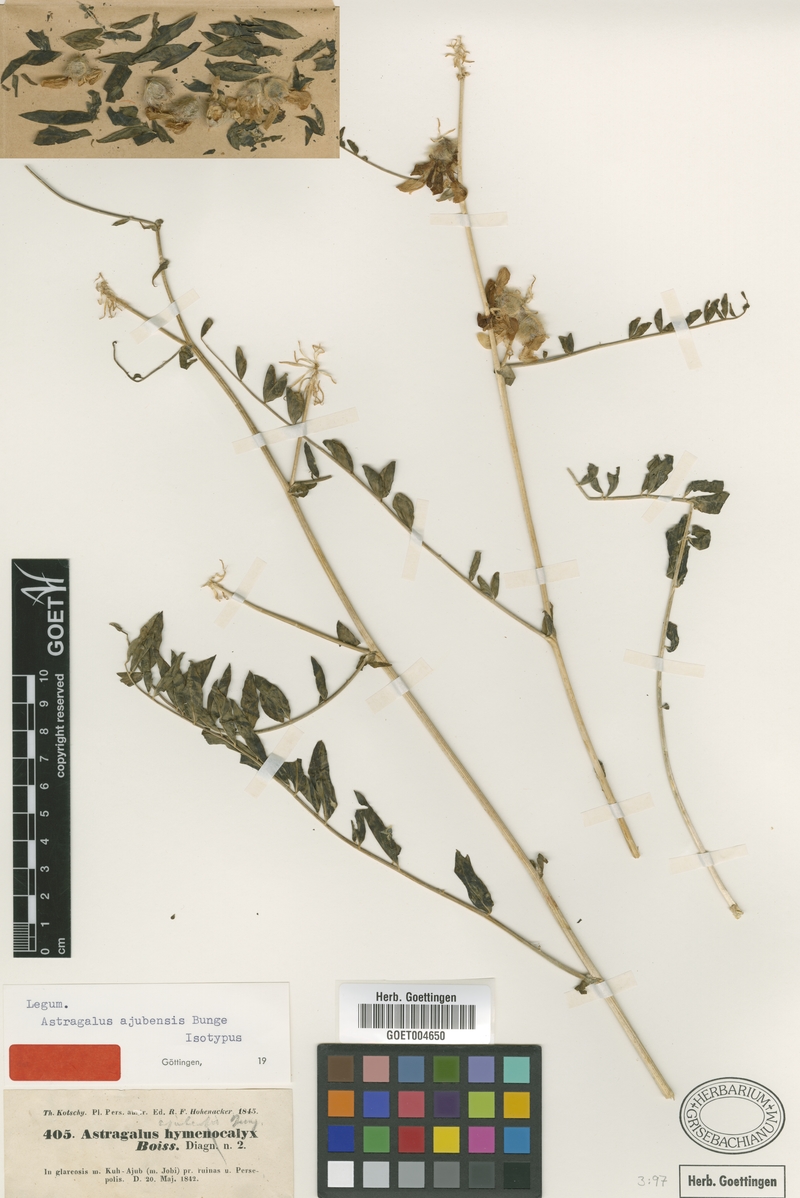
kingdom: Plantae
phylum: Tracheophyta
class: Magnoliopsida
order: Fabales
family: Fabaceae
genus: Astragalus
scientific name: Astragalus macrocephalus
